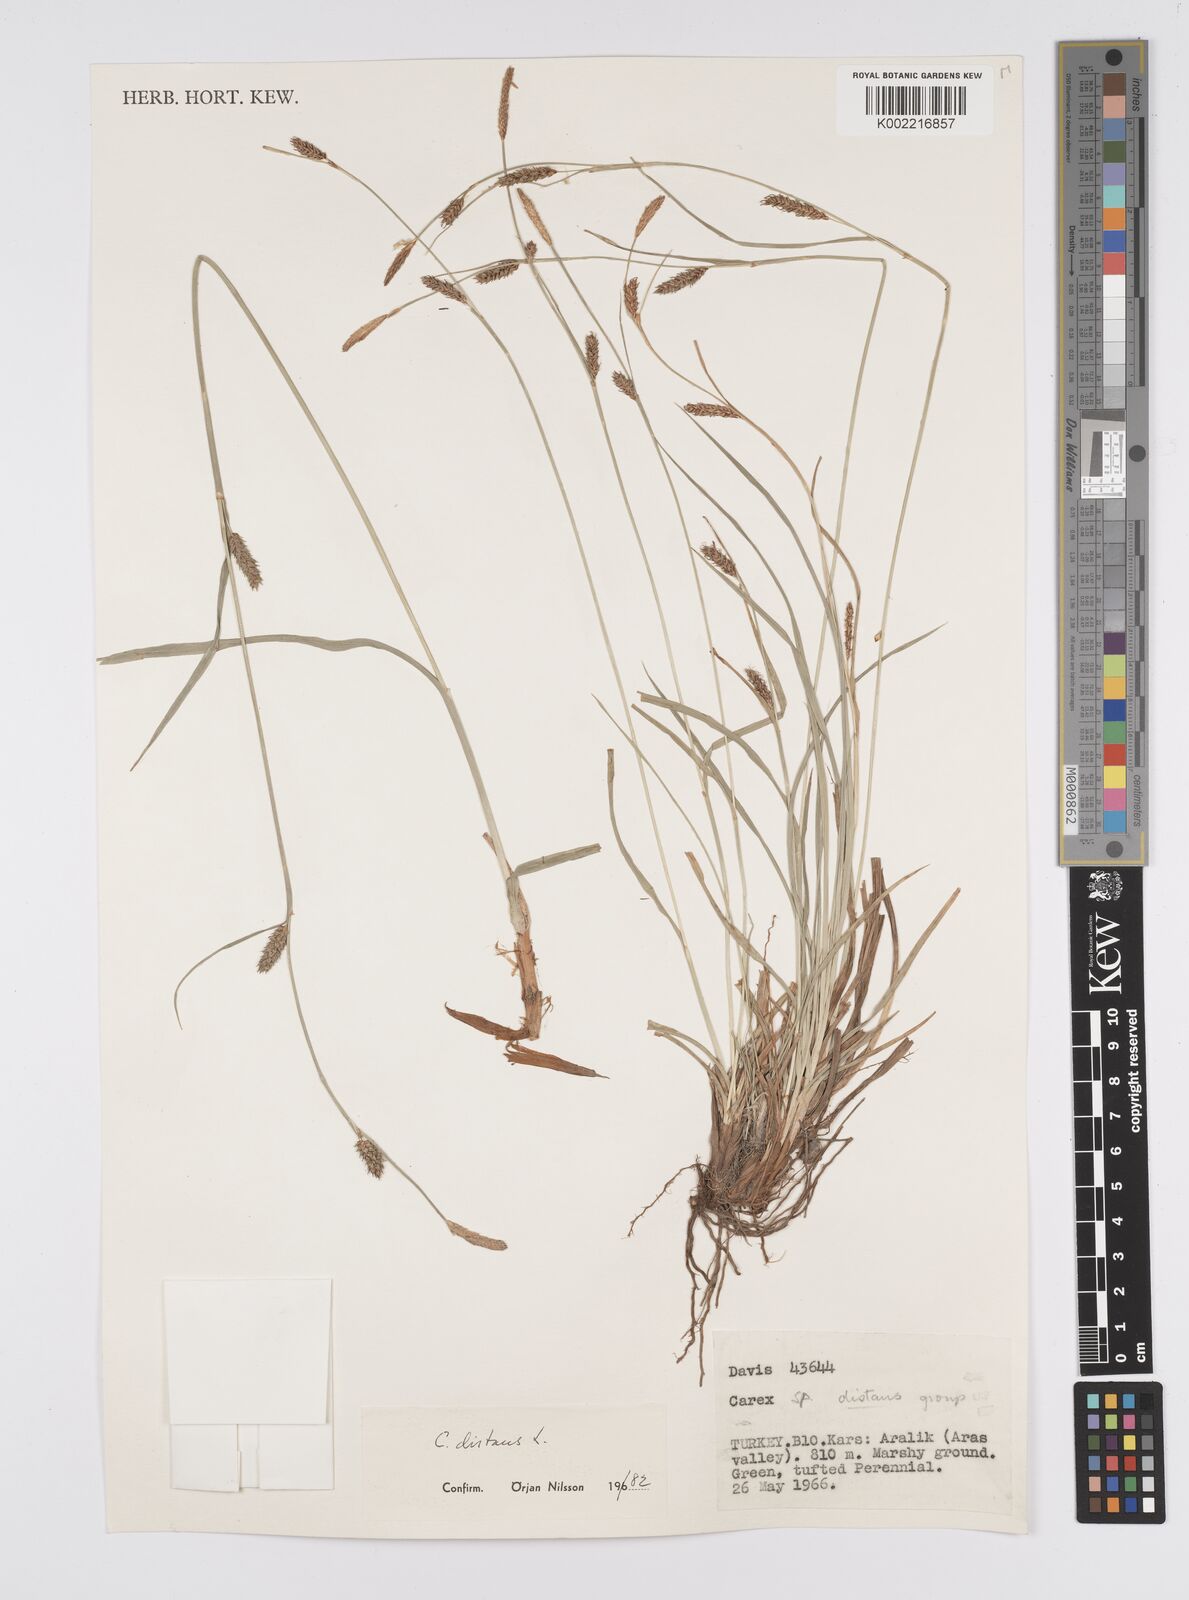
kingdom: Plantae
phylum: Tracheophyta
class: Liliopsida
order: Poales
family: Cyperaceae
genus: Carex
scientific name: Carex distans
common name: Distant sedge
